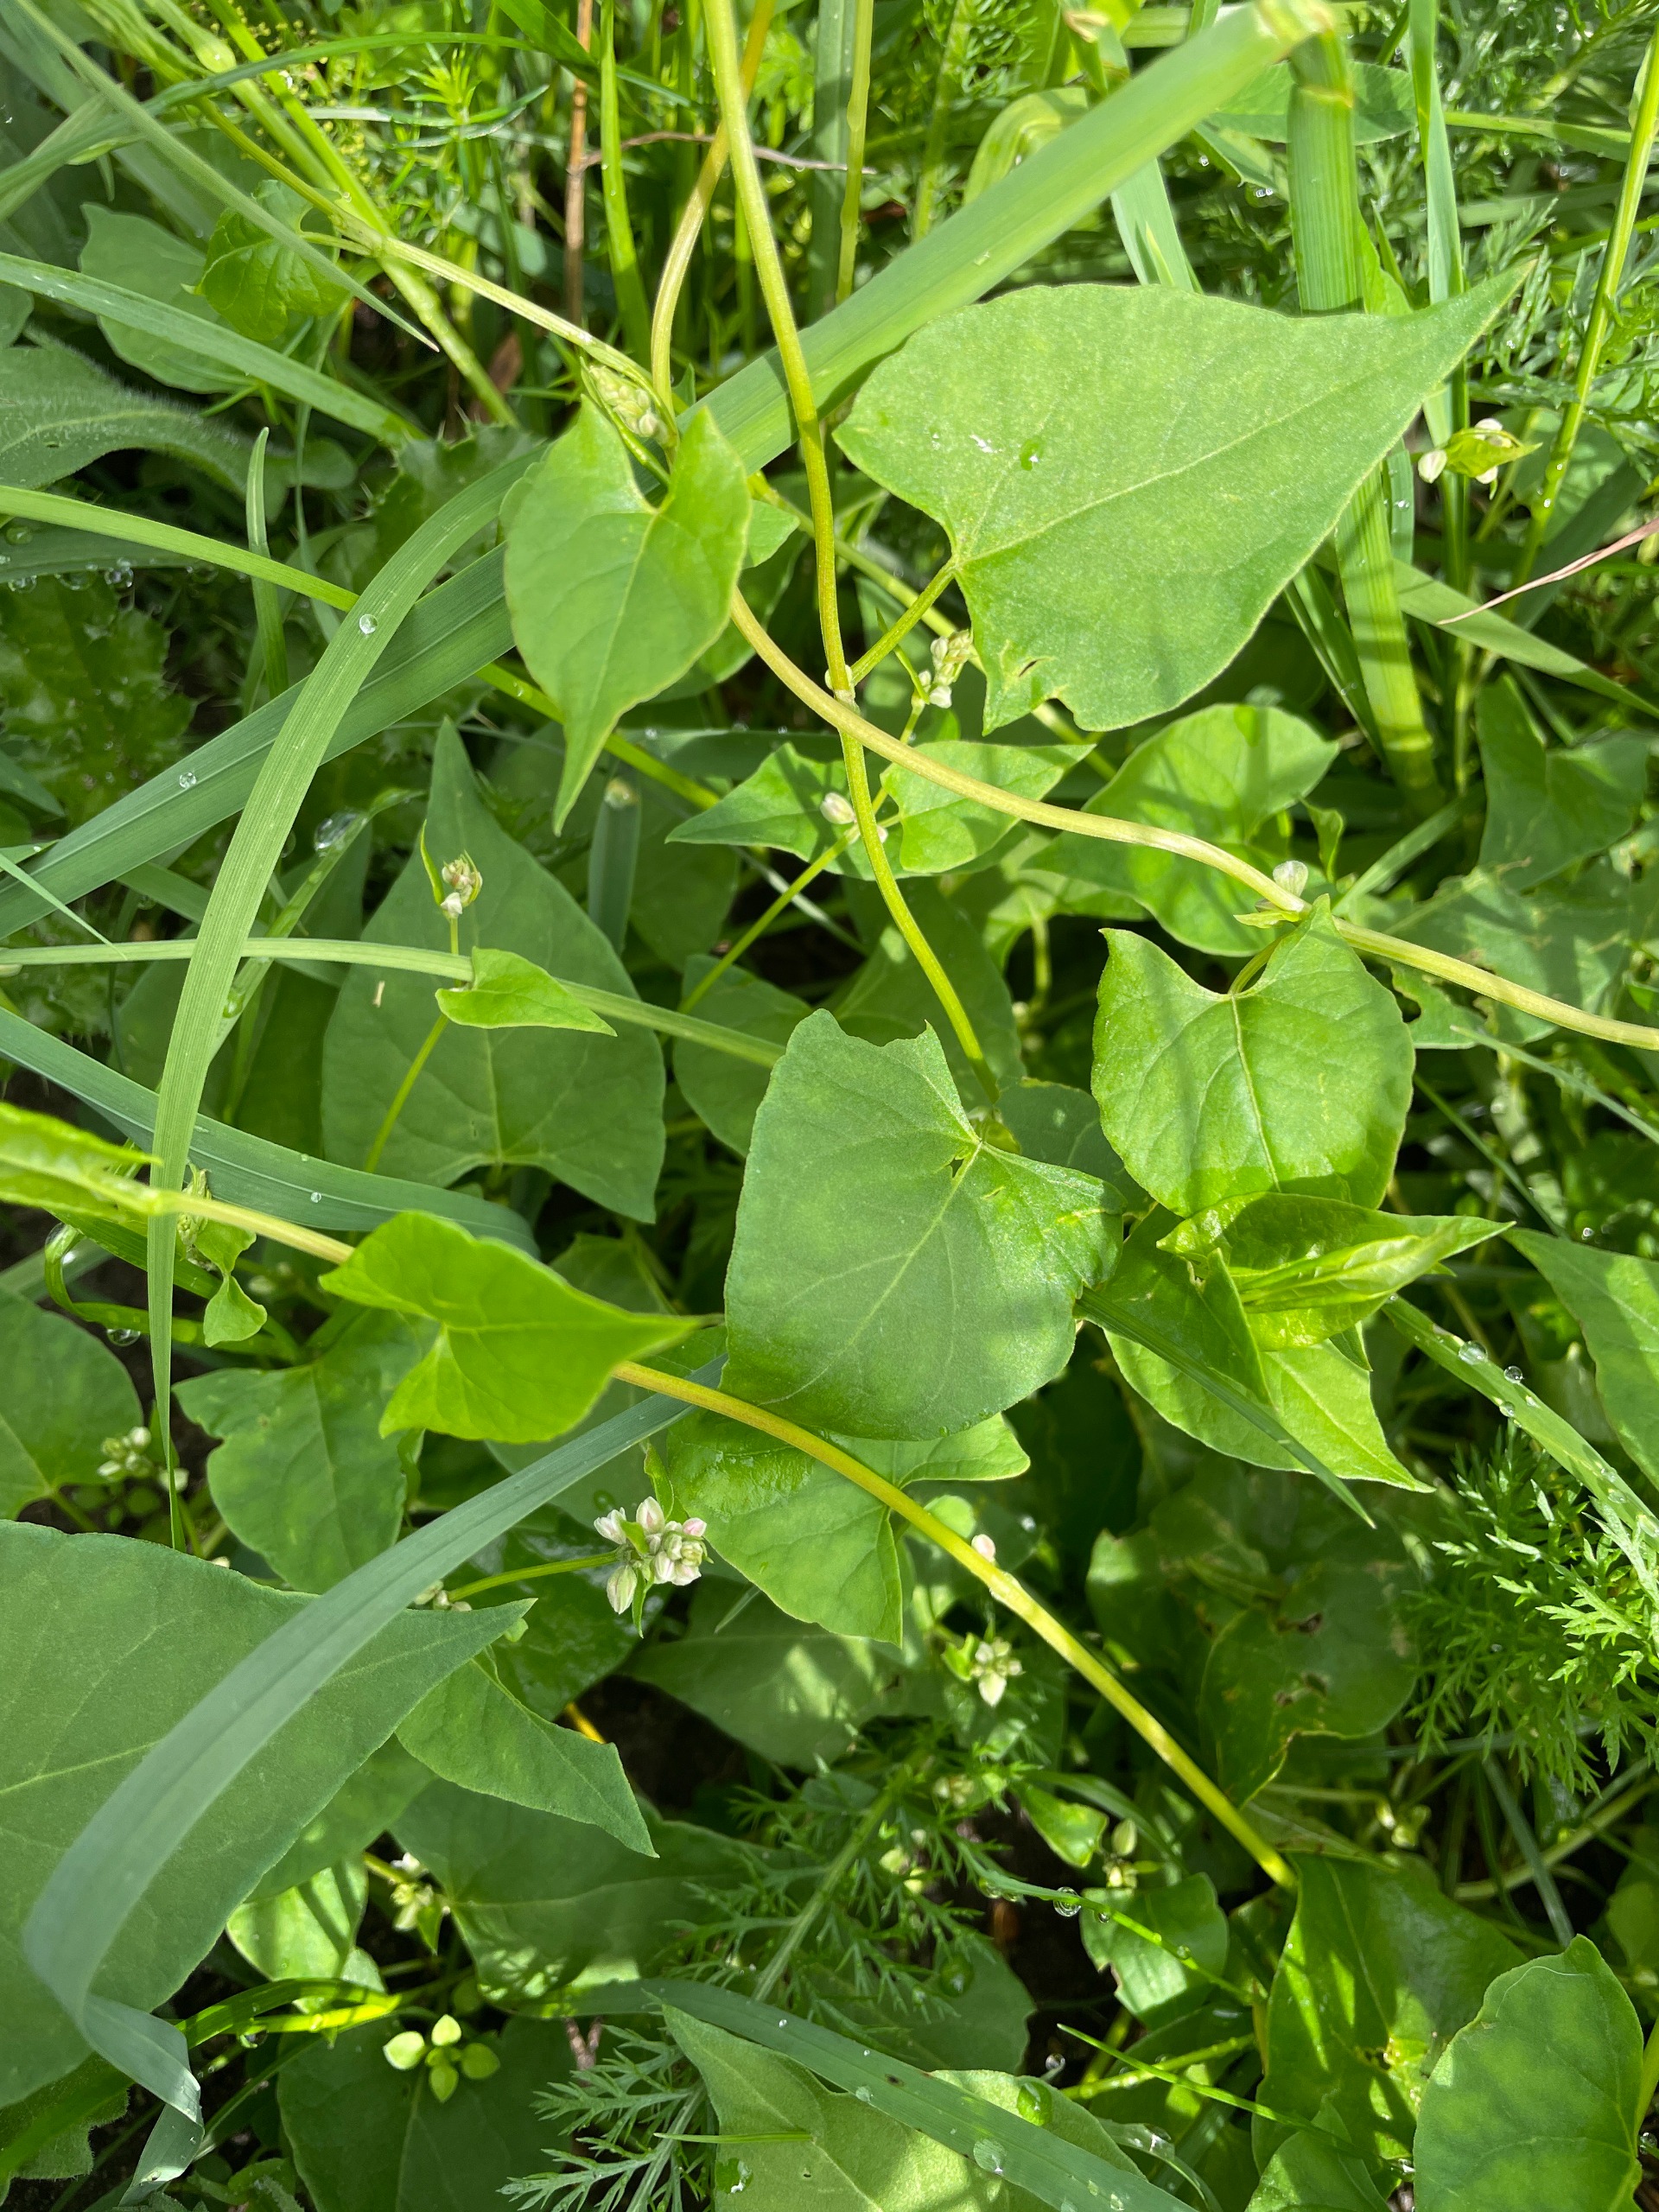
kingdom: Plantae
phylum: Tracheophyta
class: Magnoliopsida
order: Caryophyllales
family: Polygonaceae
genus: Fallopia
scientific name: Fallopia convolvulus
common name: Snerle-pileurt
